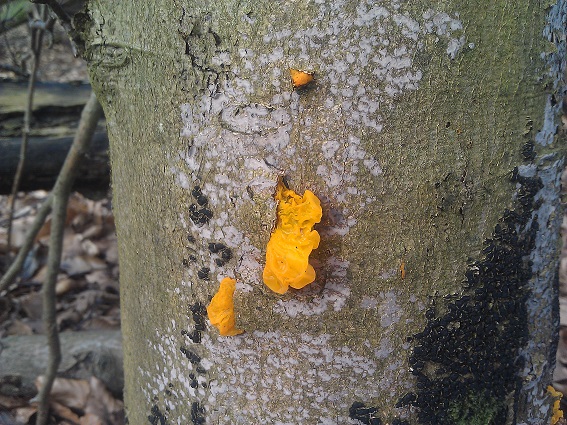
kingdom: Fungi
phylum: Ascomycota
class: Sordariomycetes
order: Xylariales
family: Melogrammataceae
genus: Melogramma
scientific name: Melogramma spiniferum
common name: bøgefod-kulhals
